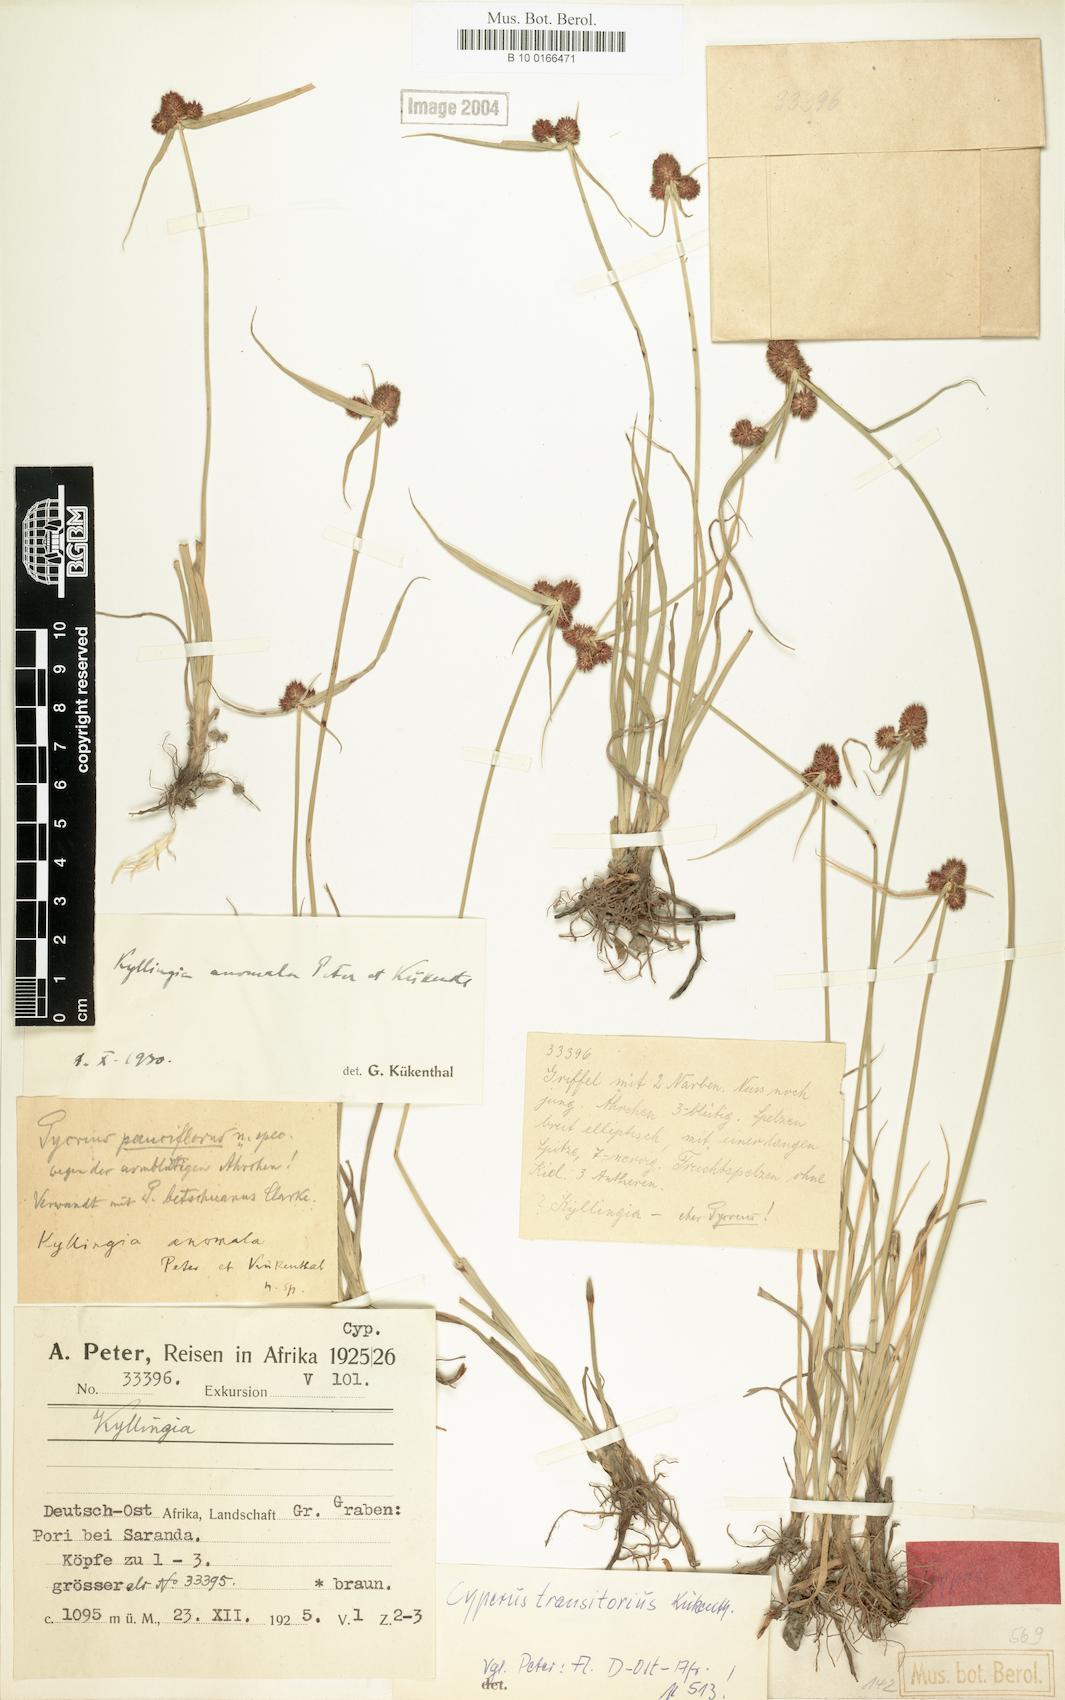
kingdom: Plantae
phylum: Tracheophyta
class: Liliopsida
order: Poales
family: Cyperaceae
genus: Cyperus
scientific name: Cyperus bracheilema
